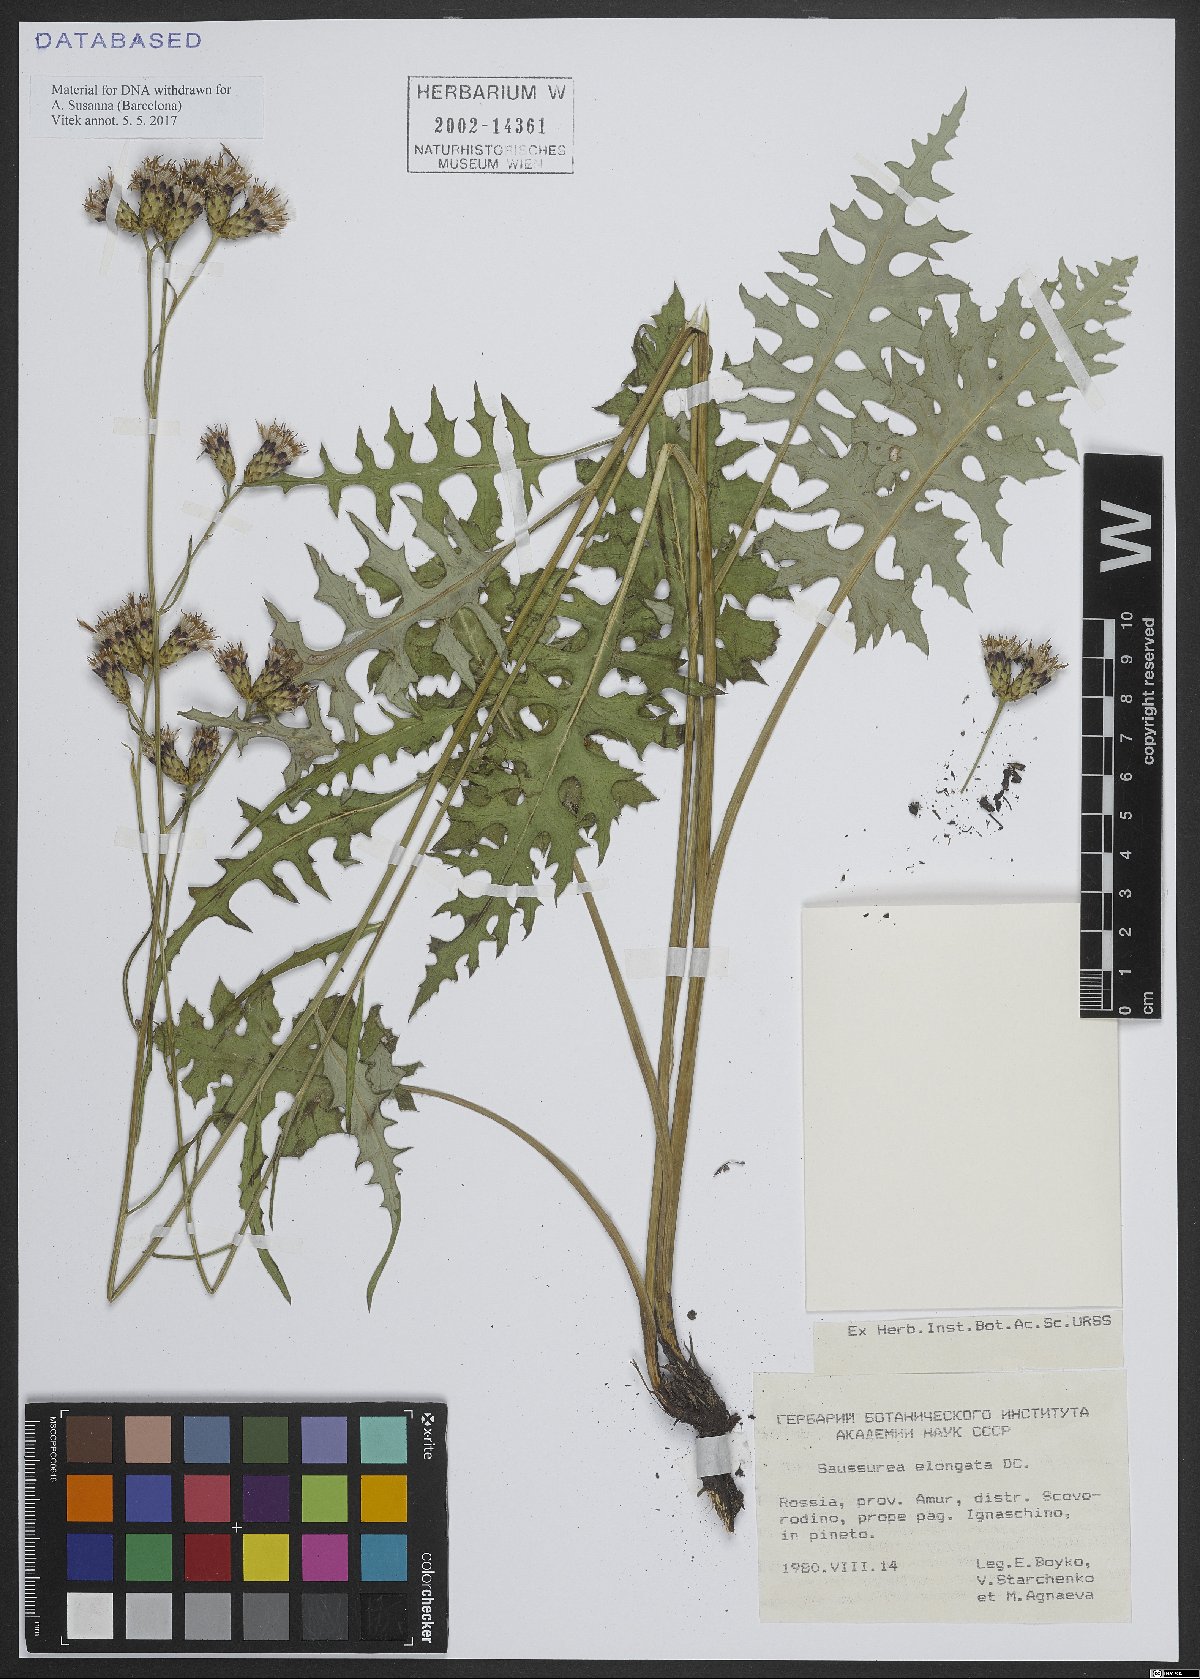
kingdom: Plantae
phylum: Tracheophyta
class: Magnoliopsida
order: Asterales
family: Asteraceae
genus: Saussurea
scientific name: Saussurea elongata
